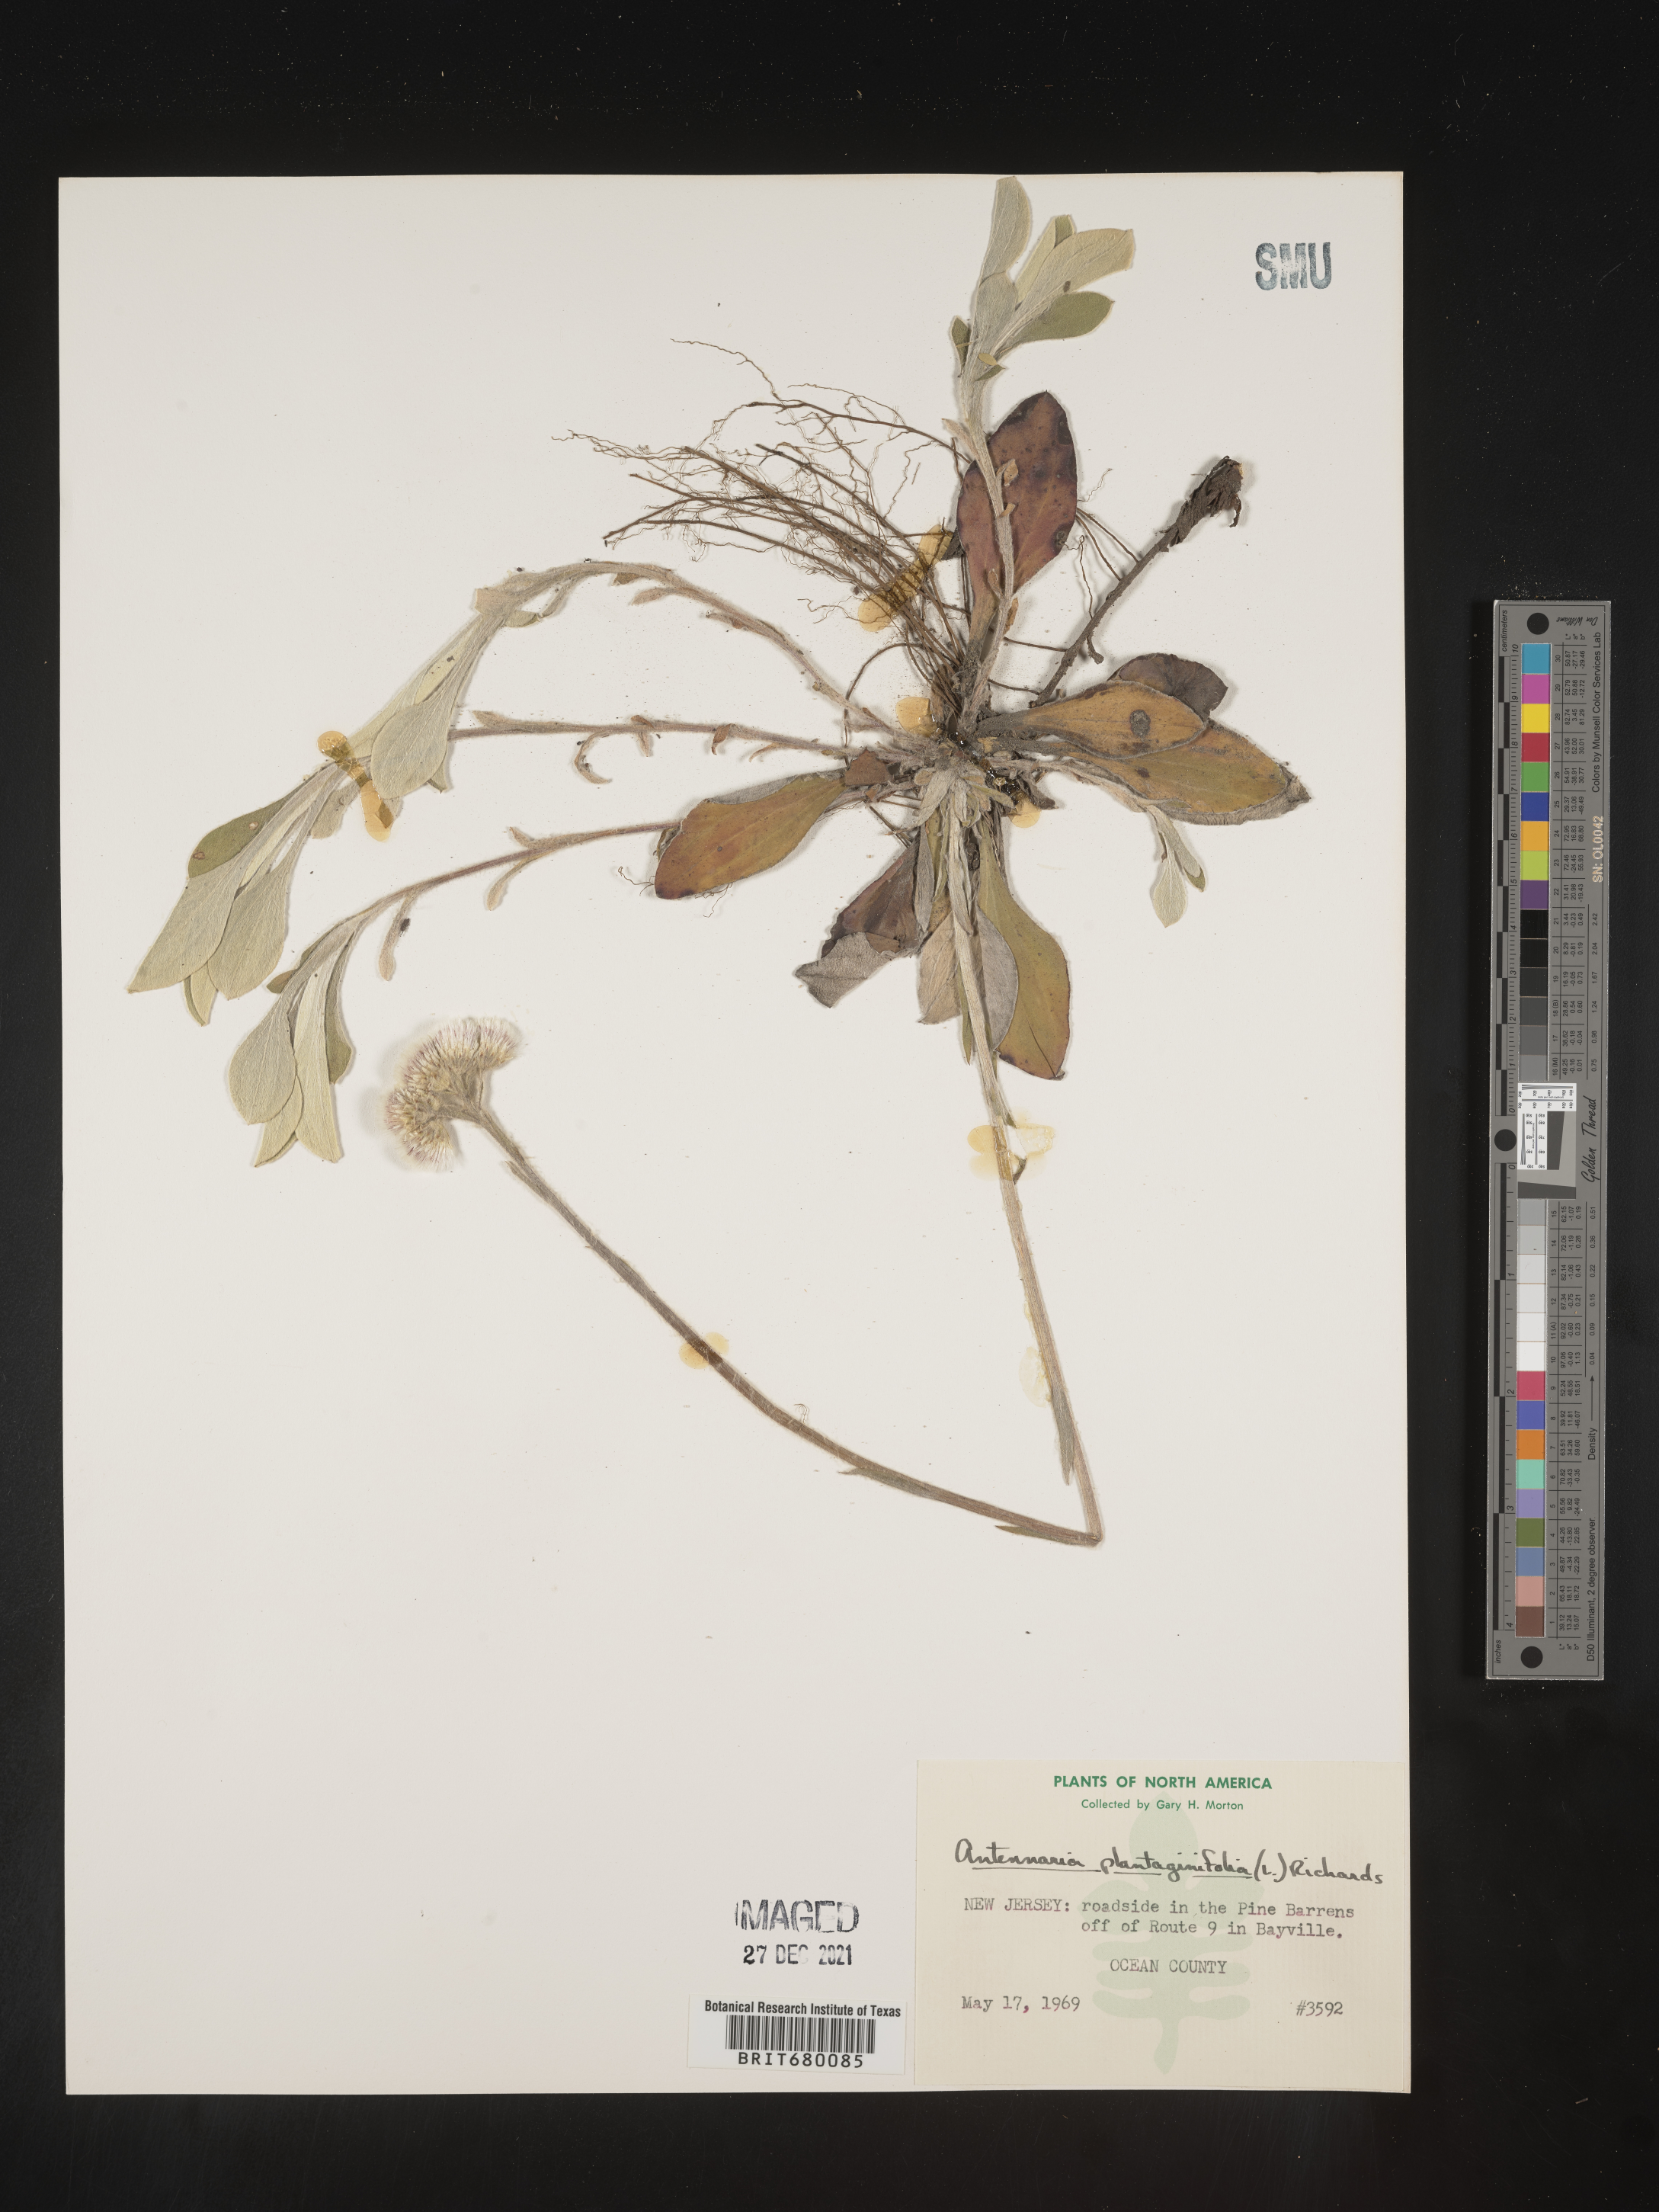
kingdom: Plantae
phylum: Tracheophyta
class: Magnoliopsida
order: Asterales
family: Asteraceae
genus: Antennaria
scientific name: Antennaria plantaginifolia
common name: Plantain-leaved pussytoes
